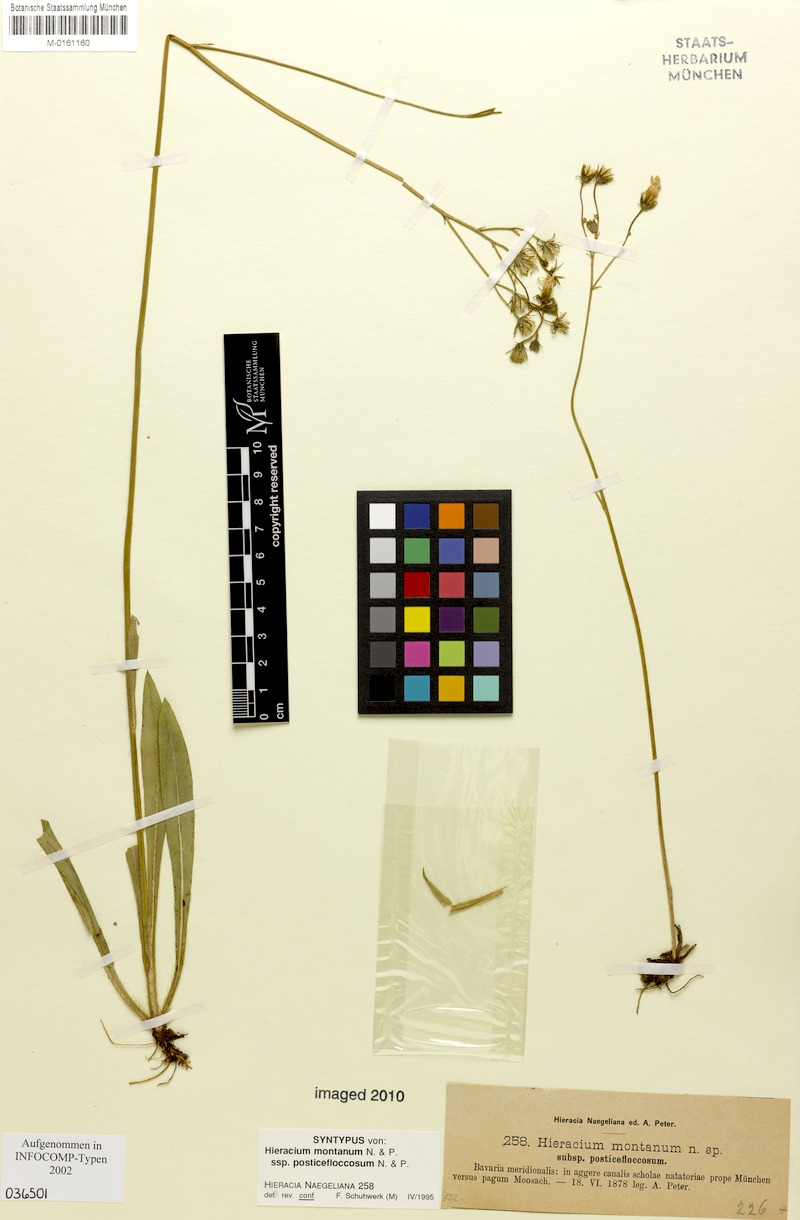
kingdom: Plantae
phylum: Tracheophyta
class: Magnoliopsida
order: Asterales
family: Asteraceae
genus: Pilosella
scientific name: Pilosella chomatophila
